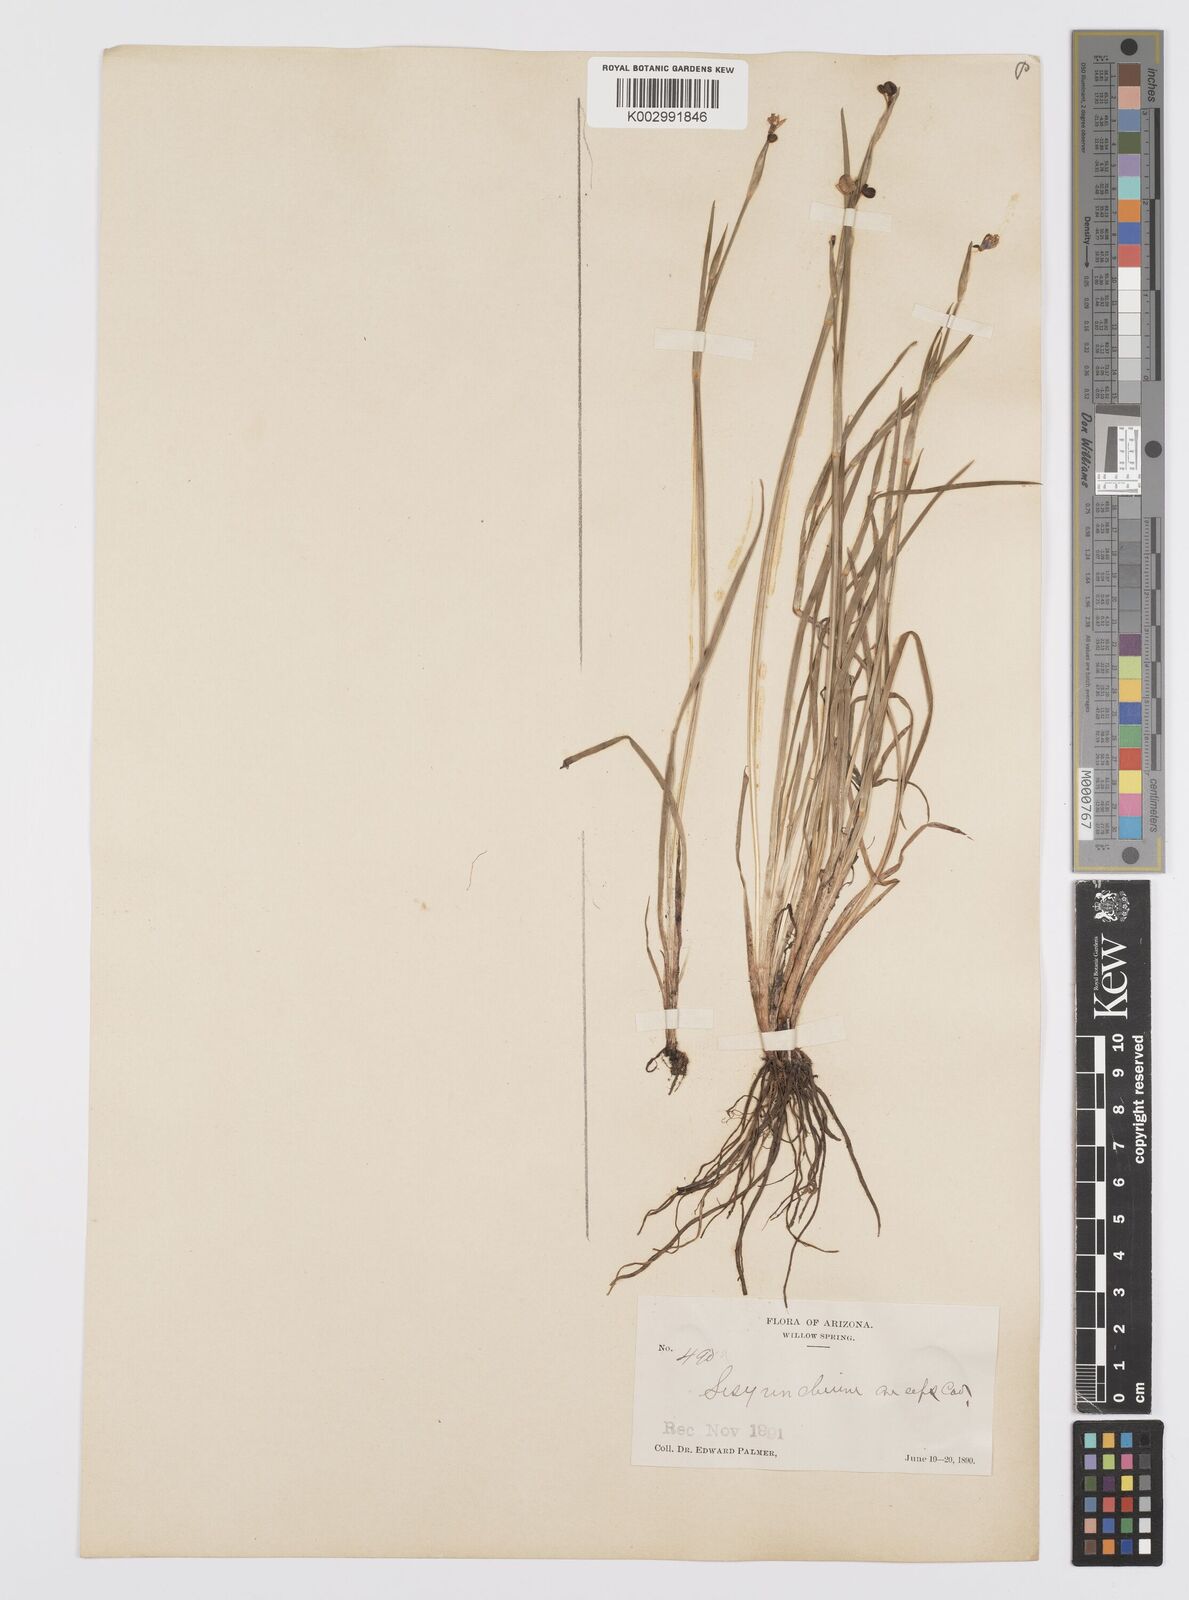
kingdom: Plantae
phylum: Tracheophyta
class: Liliopsida
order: Asparagales
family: Iridaceae
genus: Sisyrinchium
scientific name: Sisyrinchium
